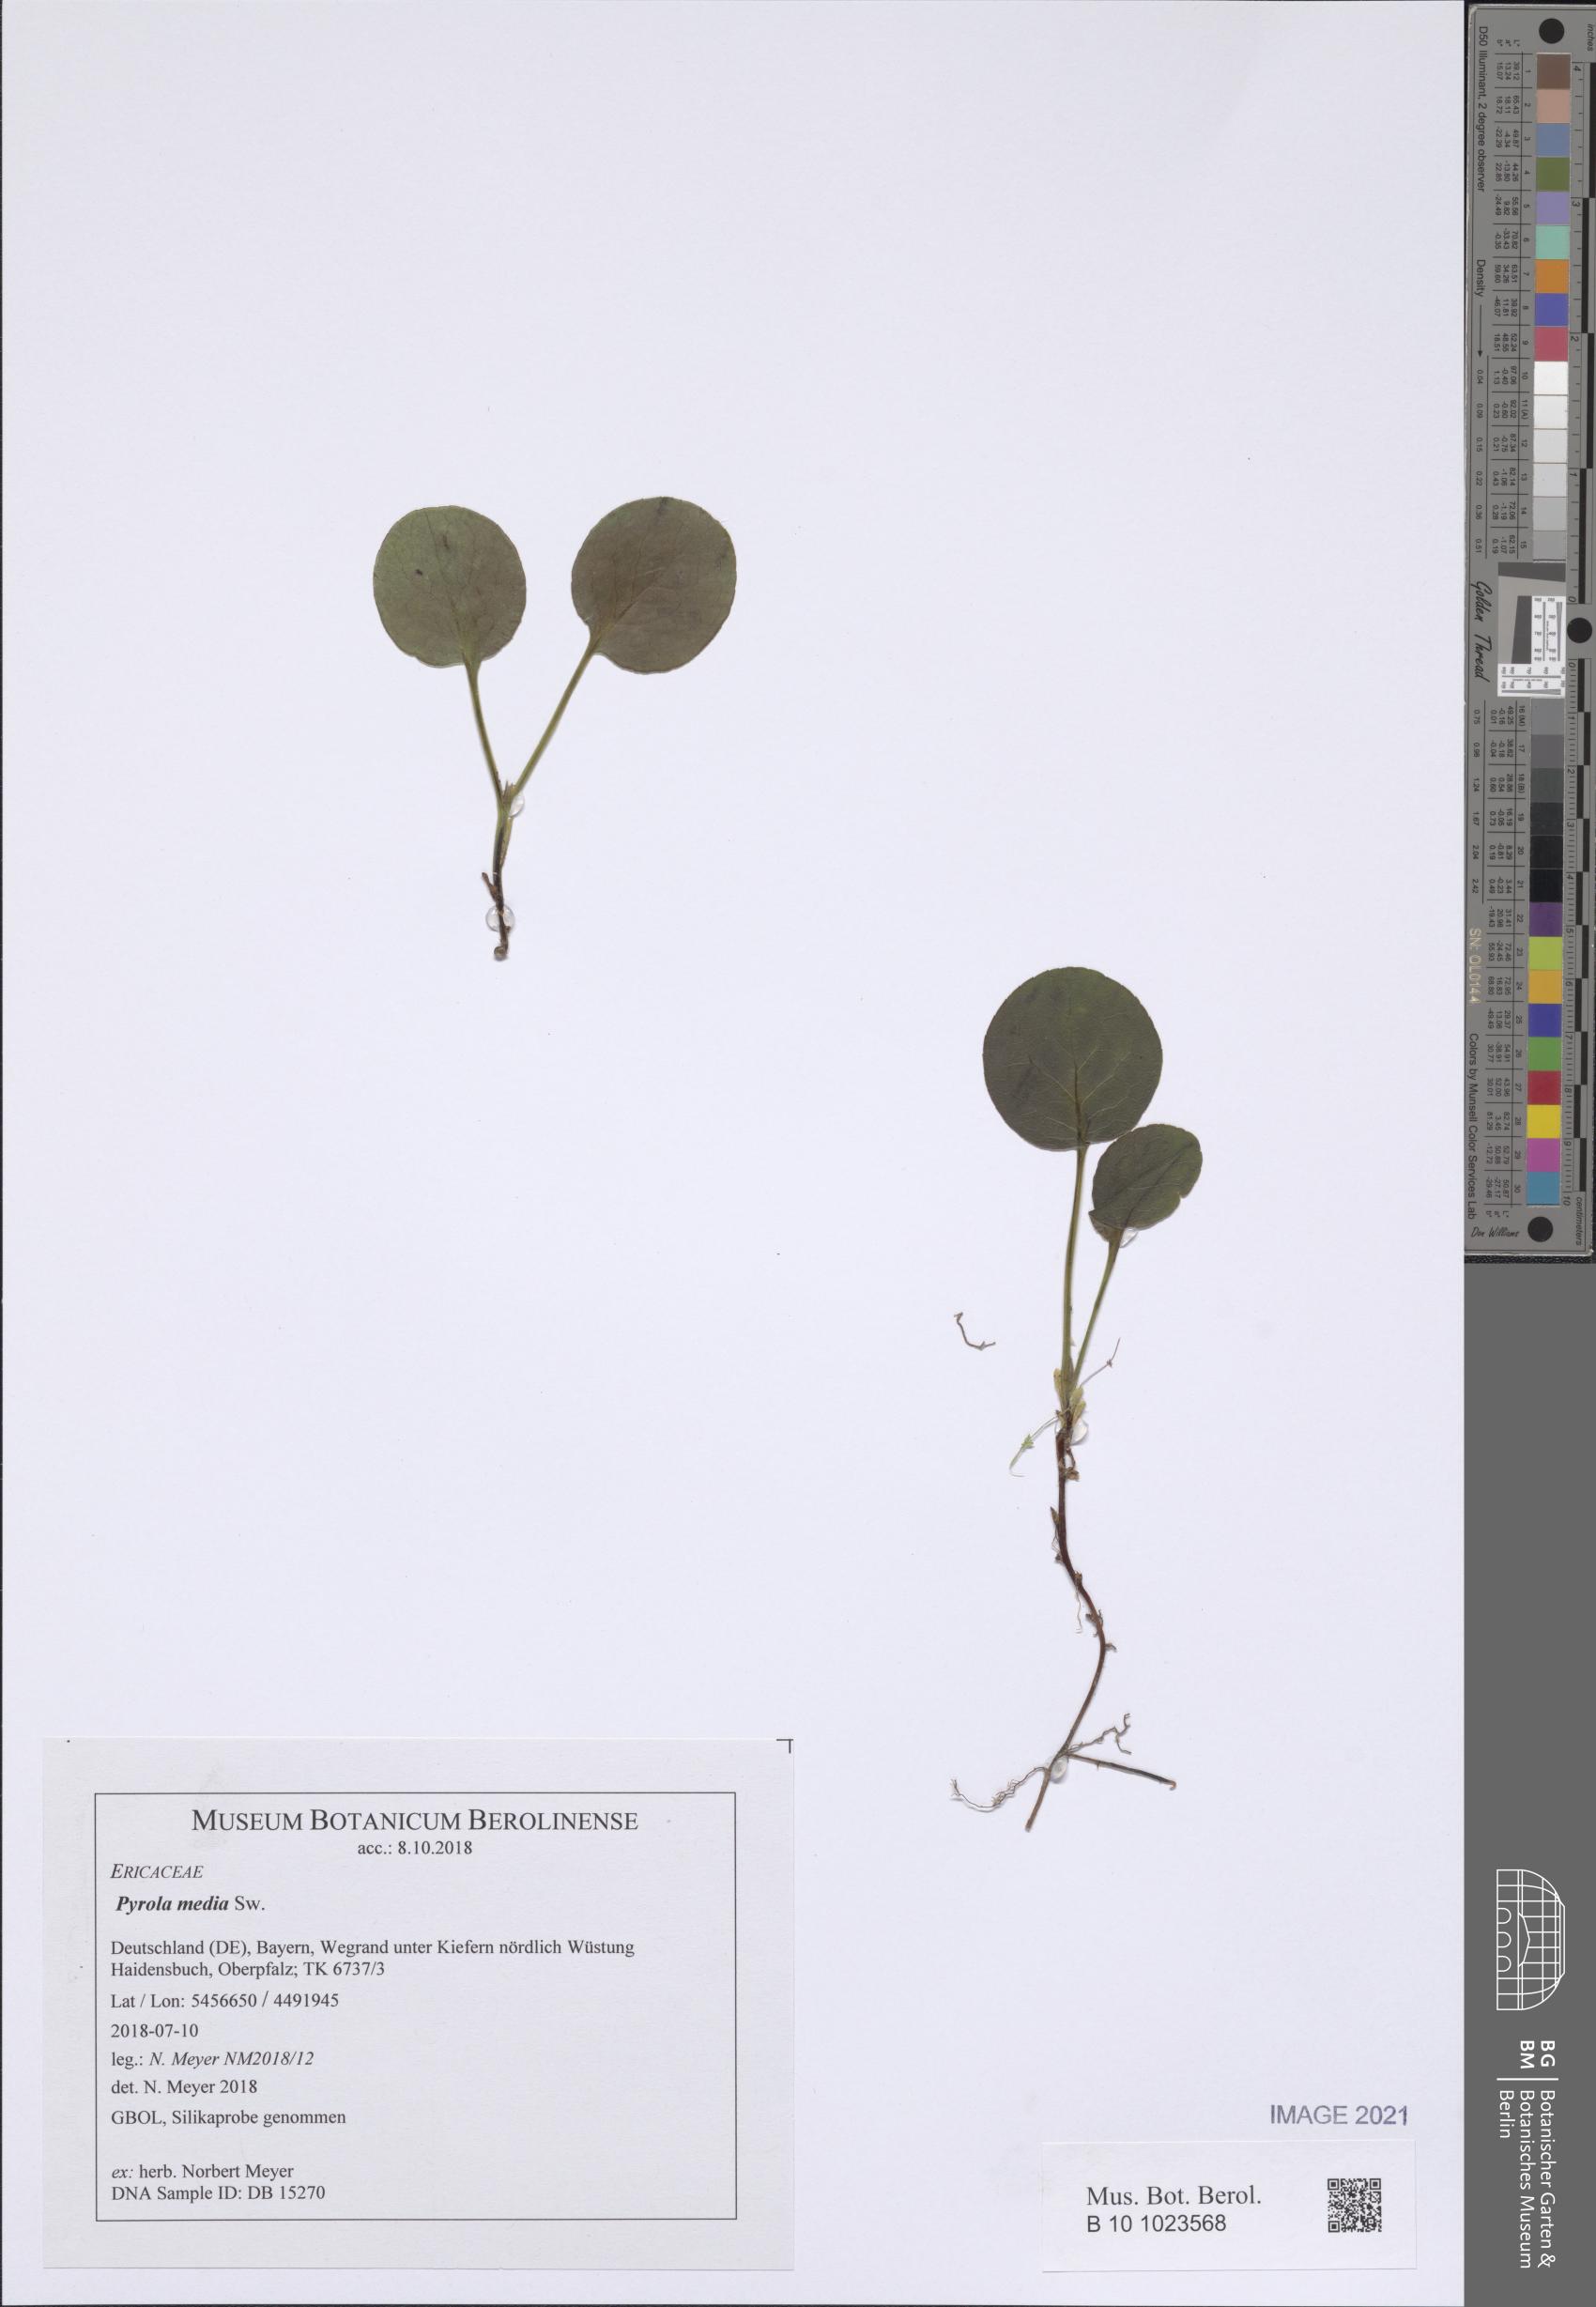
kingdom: Plantae
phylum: Tracheophyta
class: Magnoliopsida
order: Ericales
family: Ericaceae
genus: Pyrola
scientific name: Pyrola media
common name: Intermediate wintergreen
